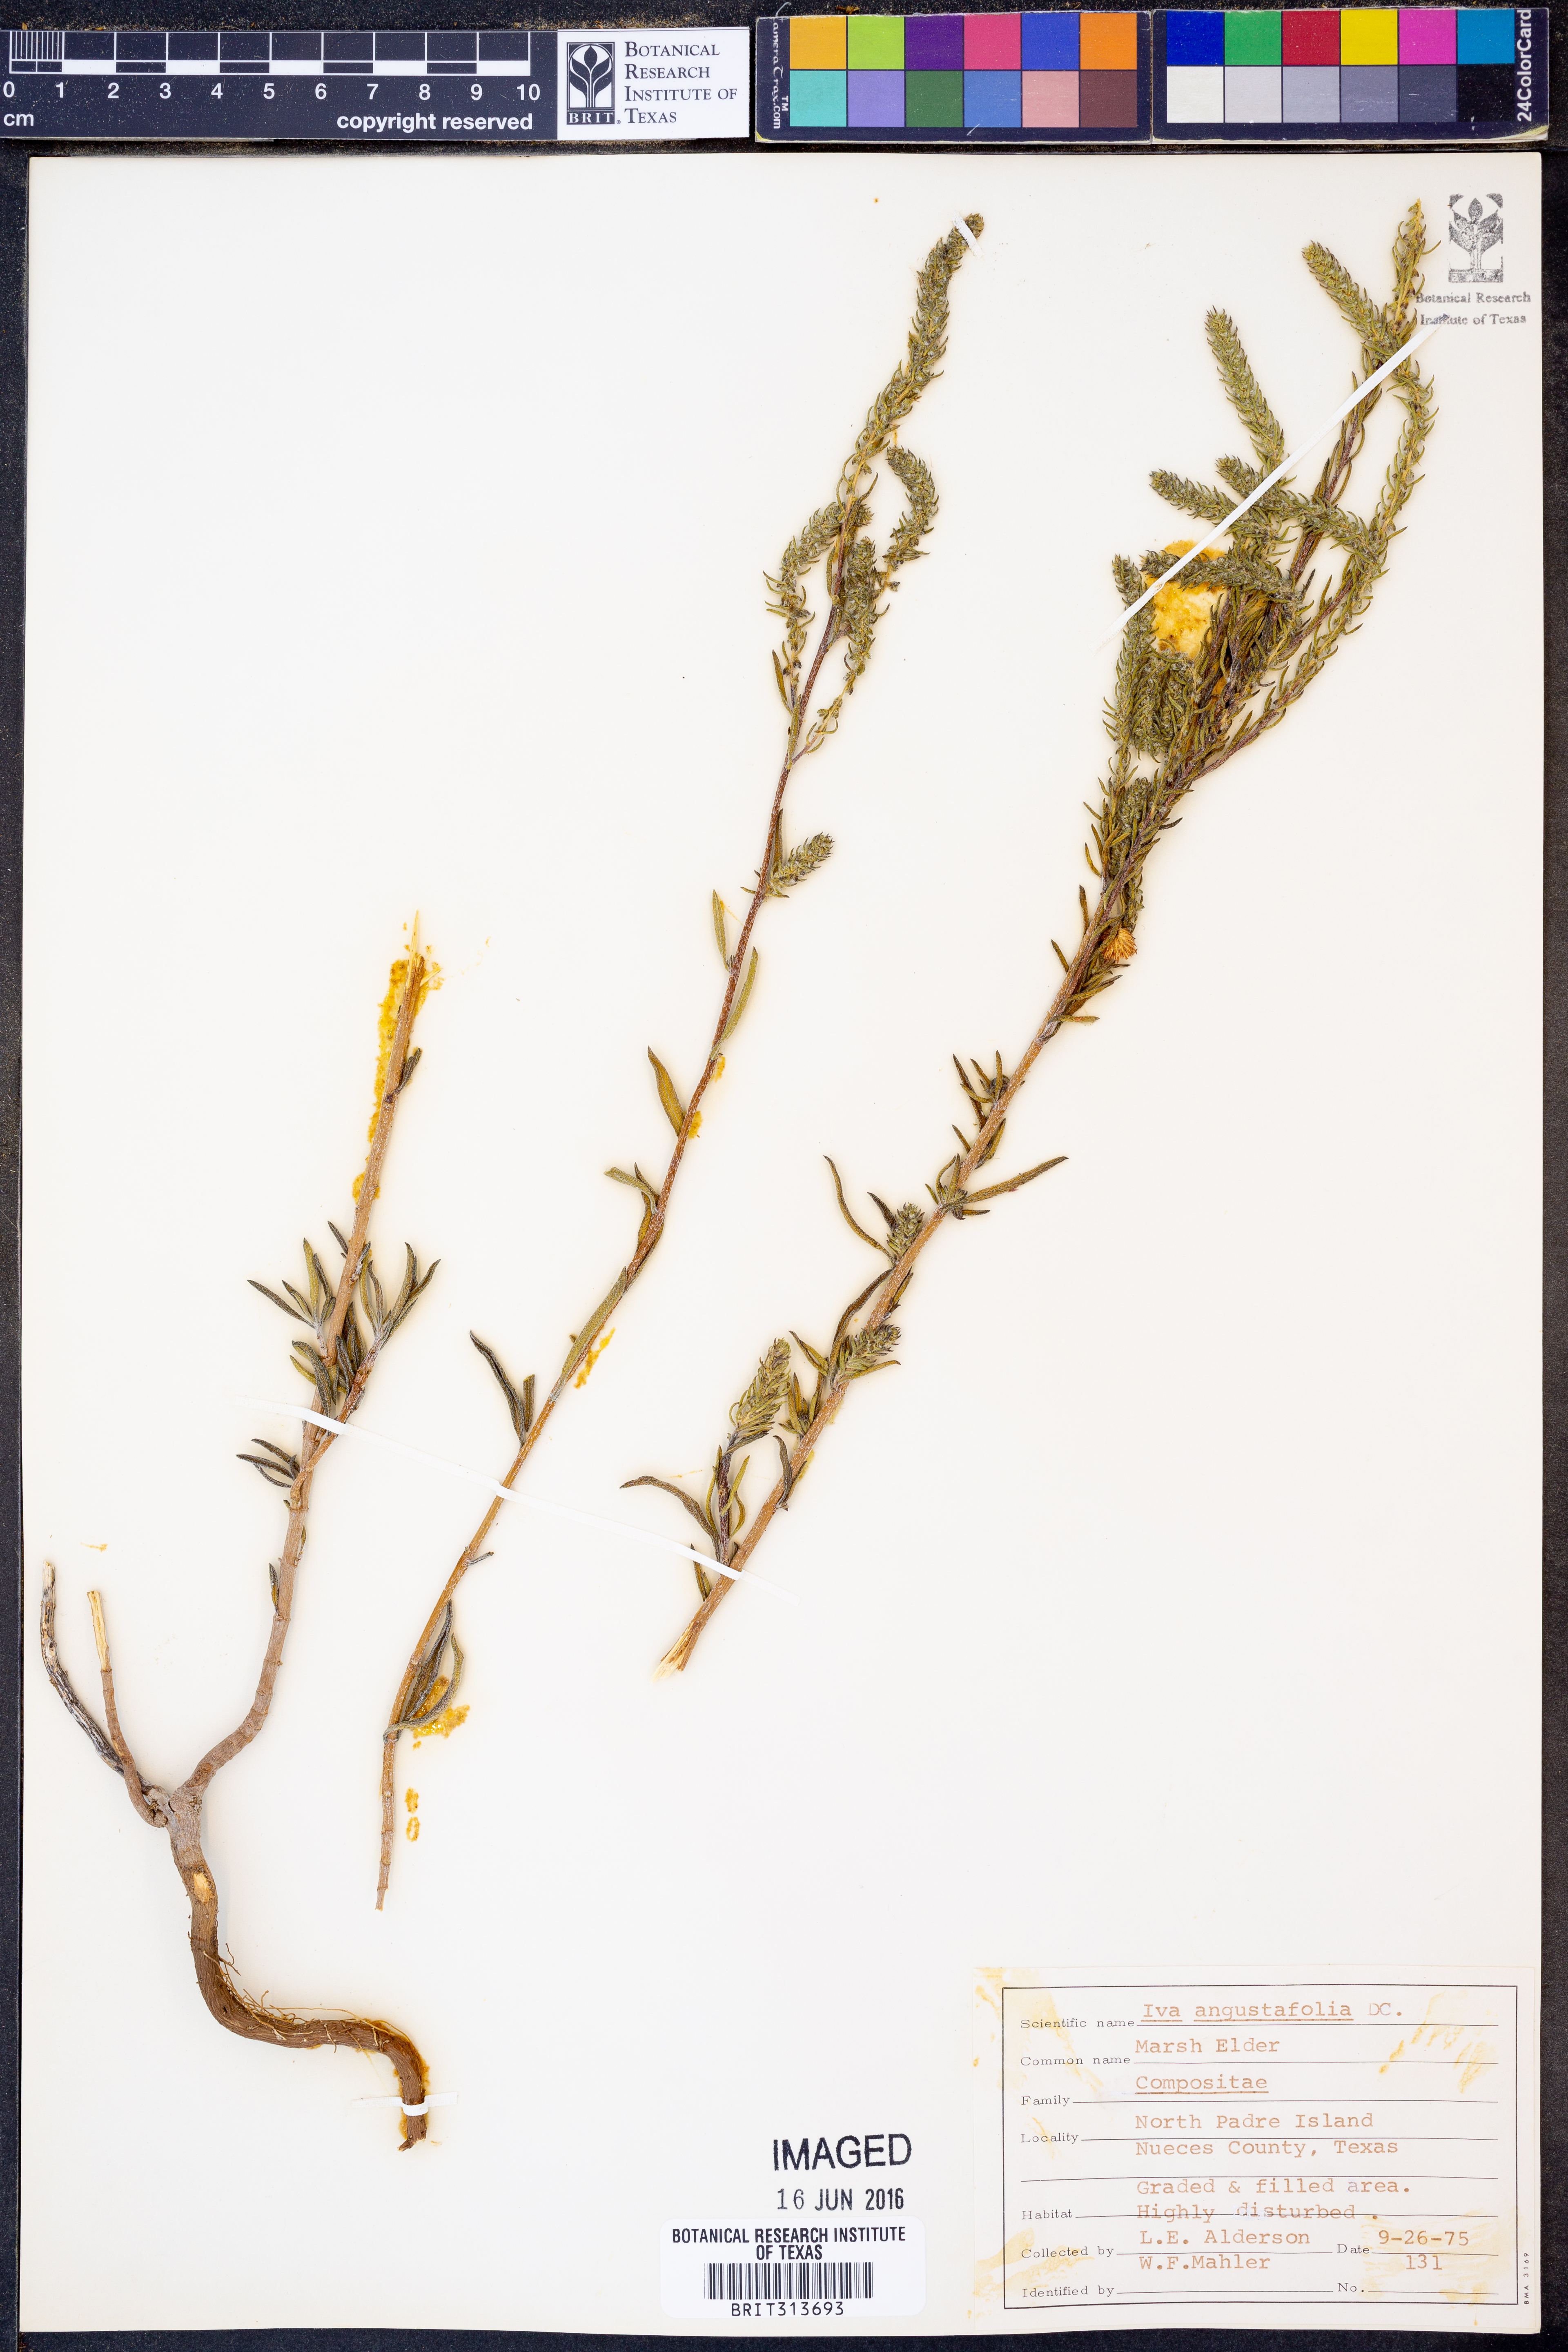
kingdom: Plantae
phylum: Tracheophyta
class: Magnoliopsida
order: Asterales
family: Asteraceae
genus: Iva
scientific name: Iva asperifolia
